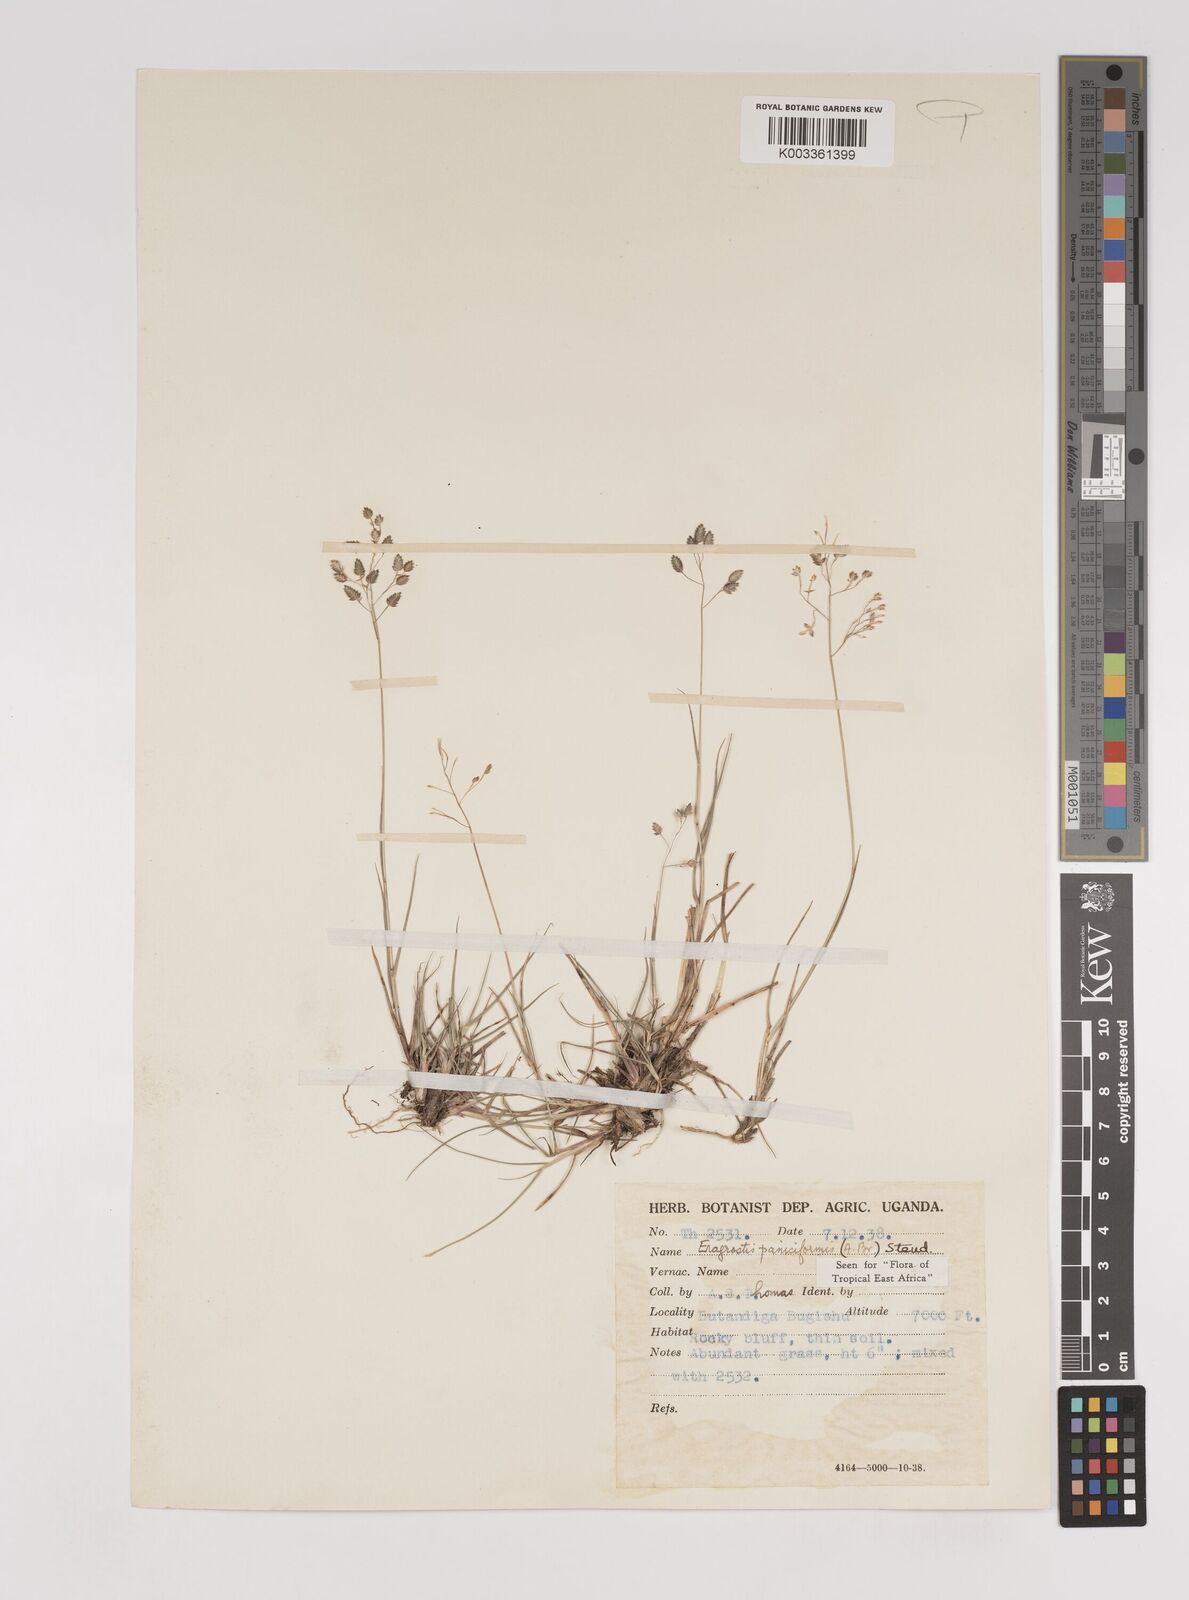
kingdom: Plantae
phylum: Tracheophyta
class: Liliopsida
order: Poales
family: Poaceae
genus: Eragrostis
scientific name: Eragrostis paniciformis
